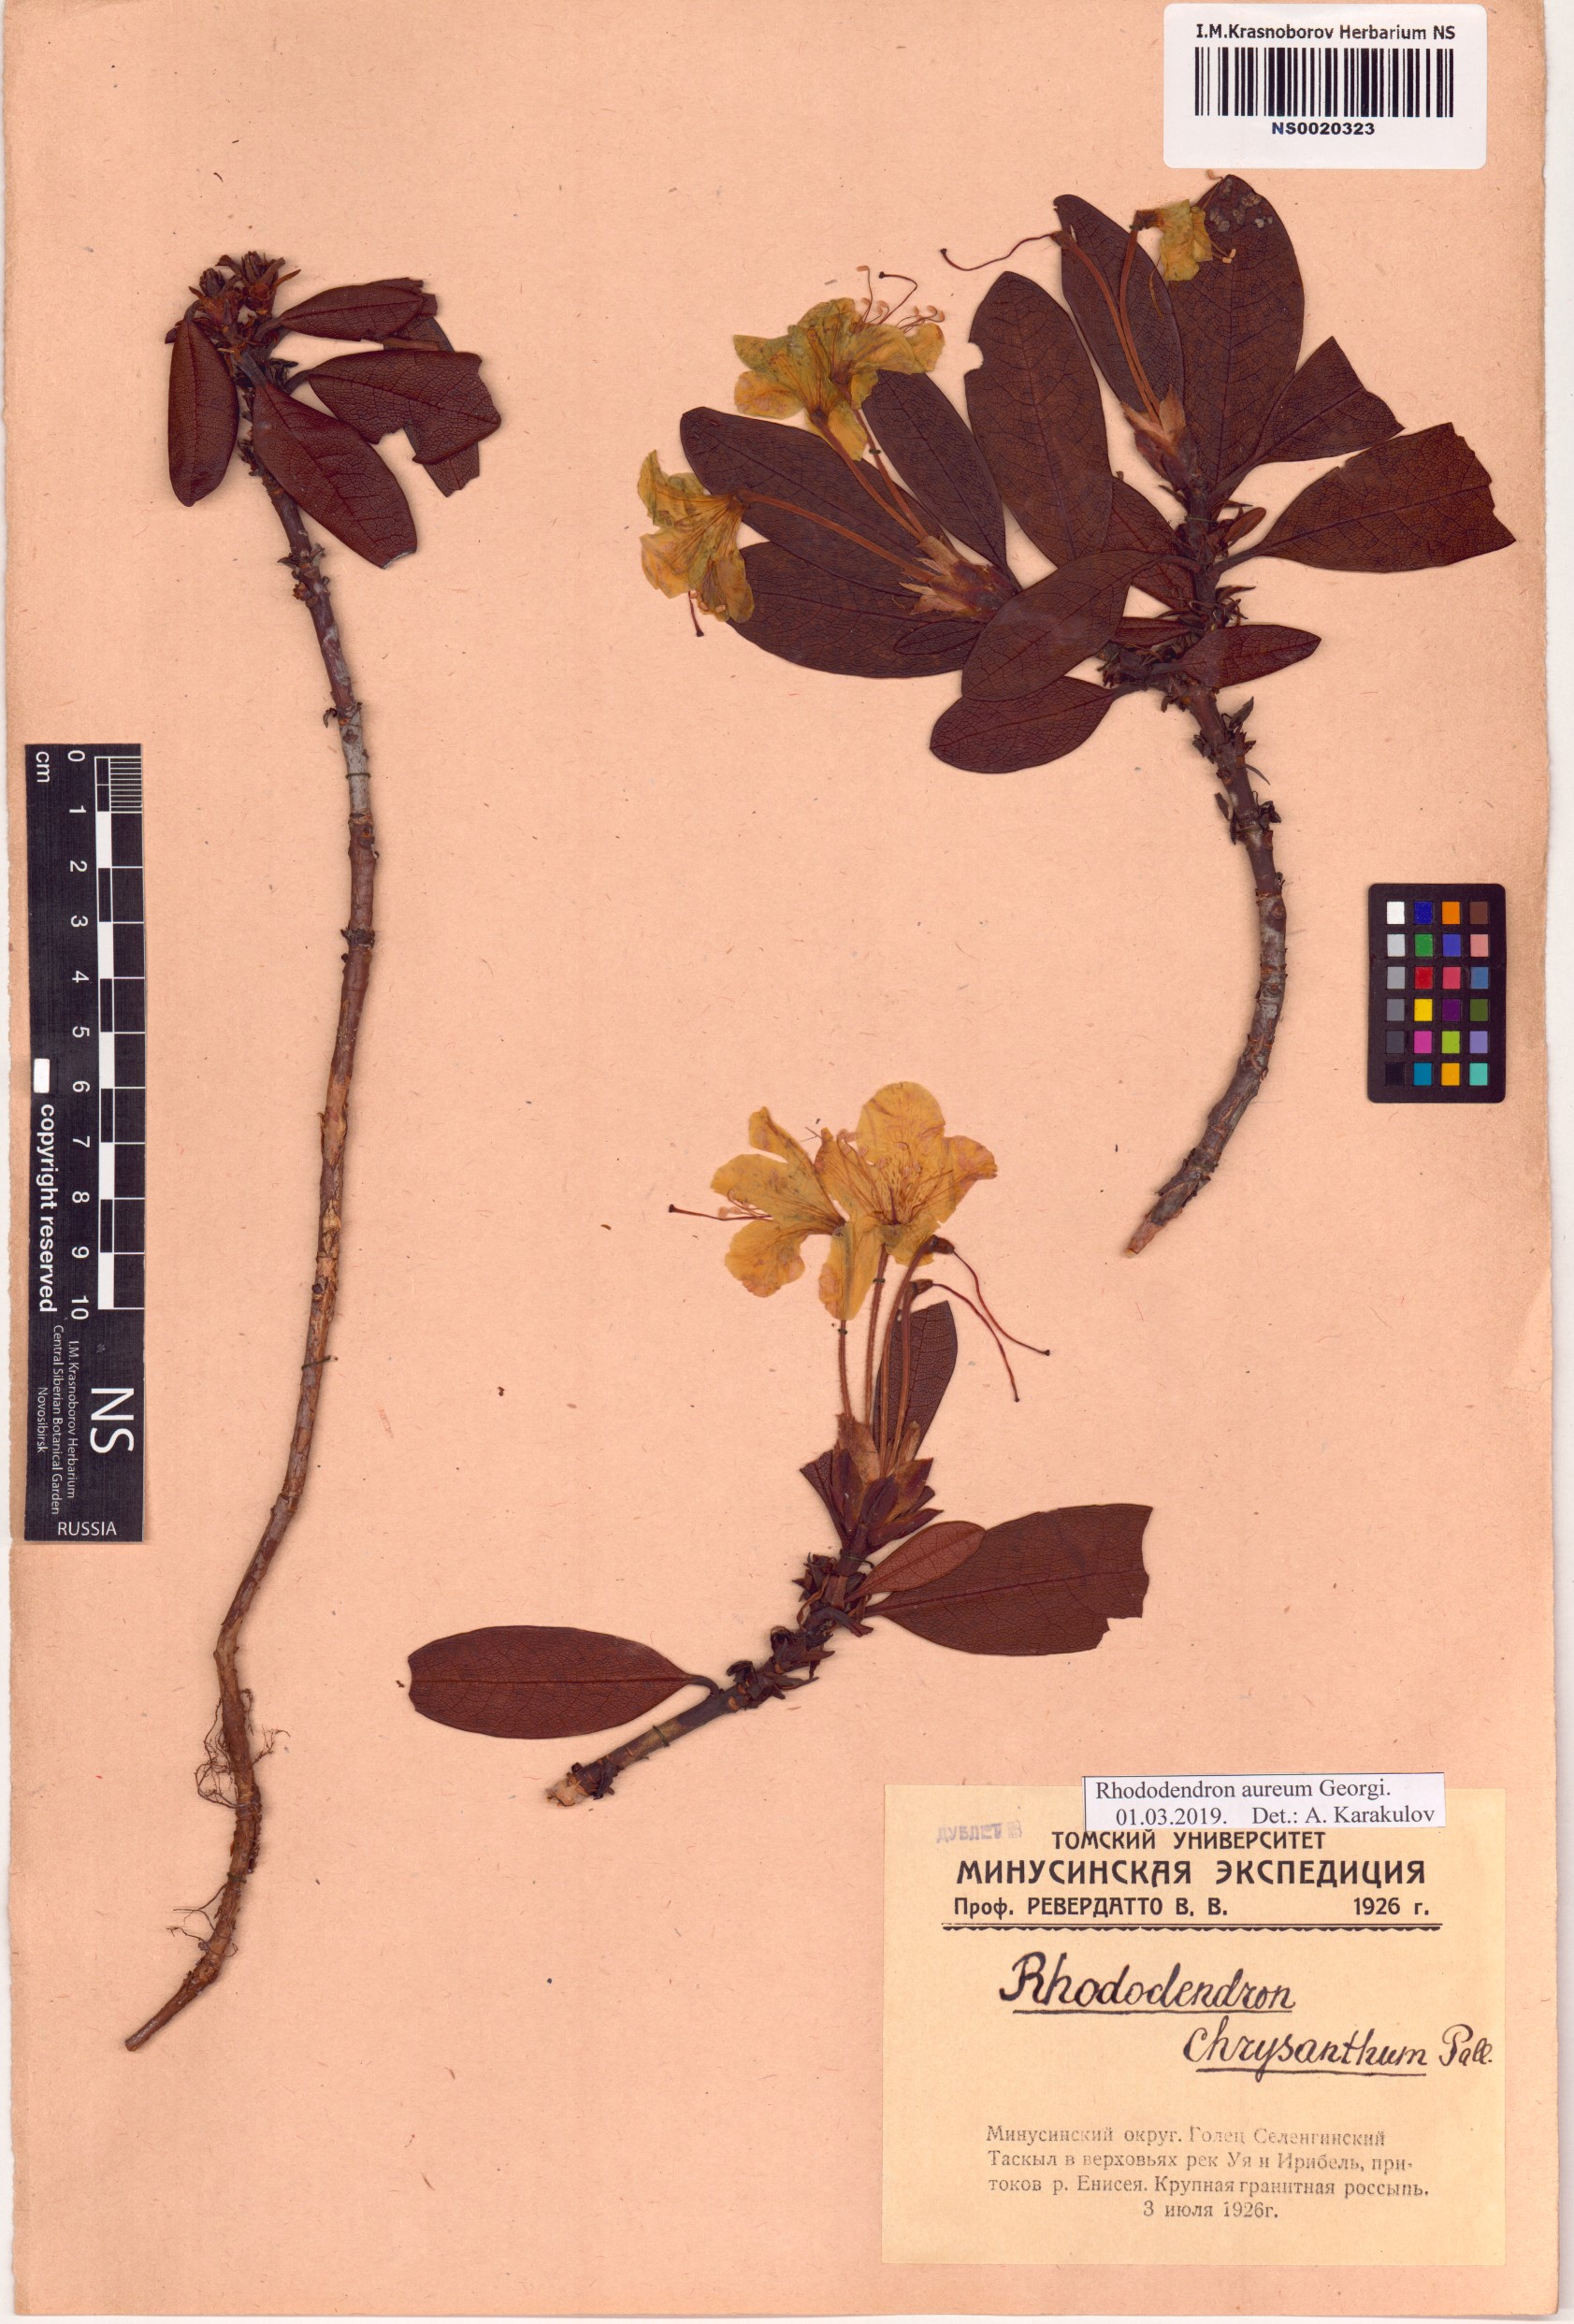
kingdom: Plantae
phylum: Tracheophyta
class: Magnoliopsida
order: Ericales
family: Ericaceae
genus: Rhododendron
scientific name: Rhododendron aureum
